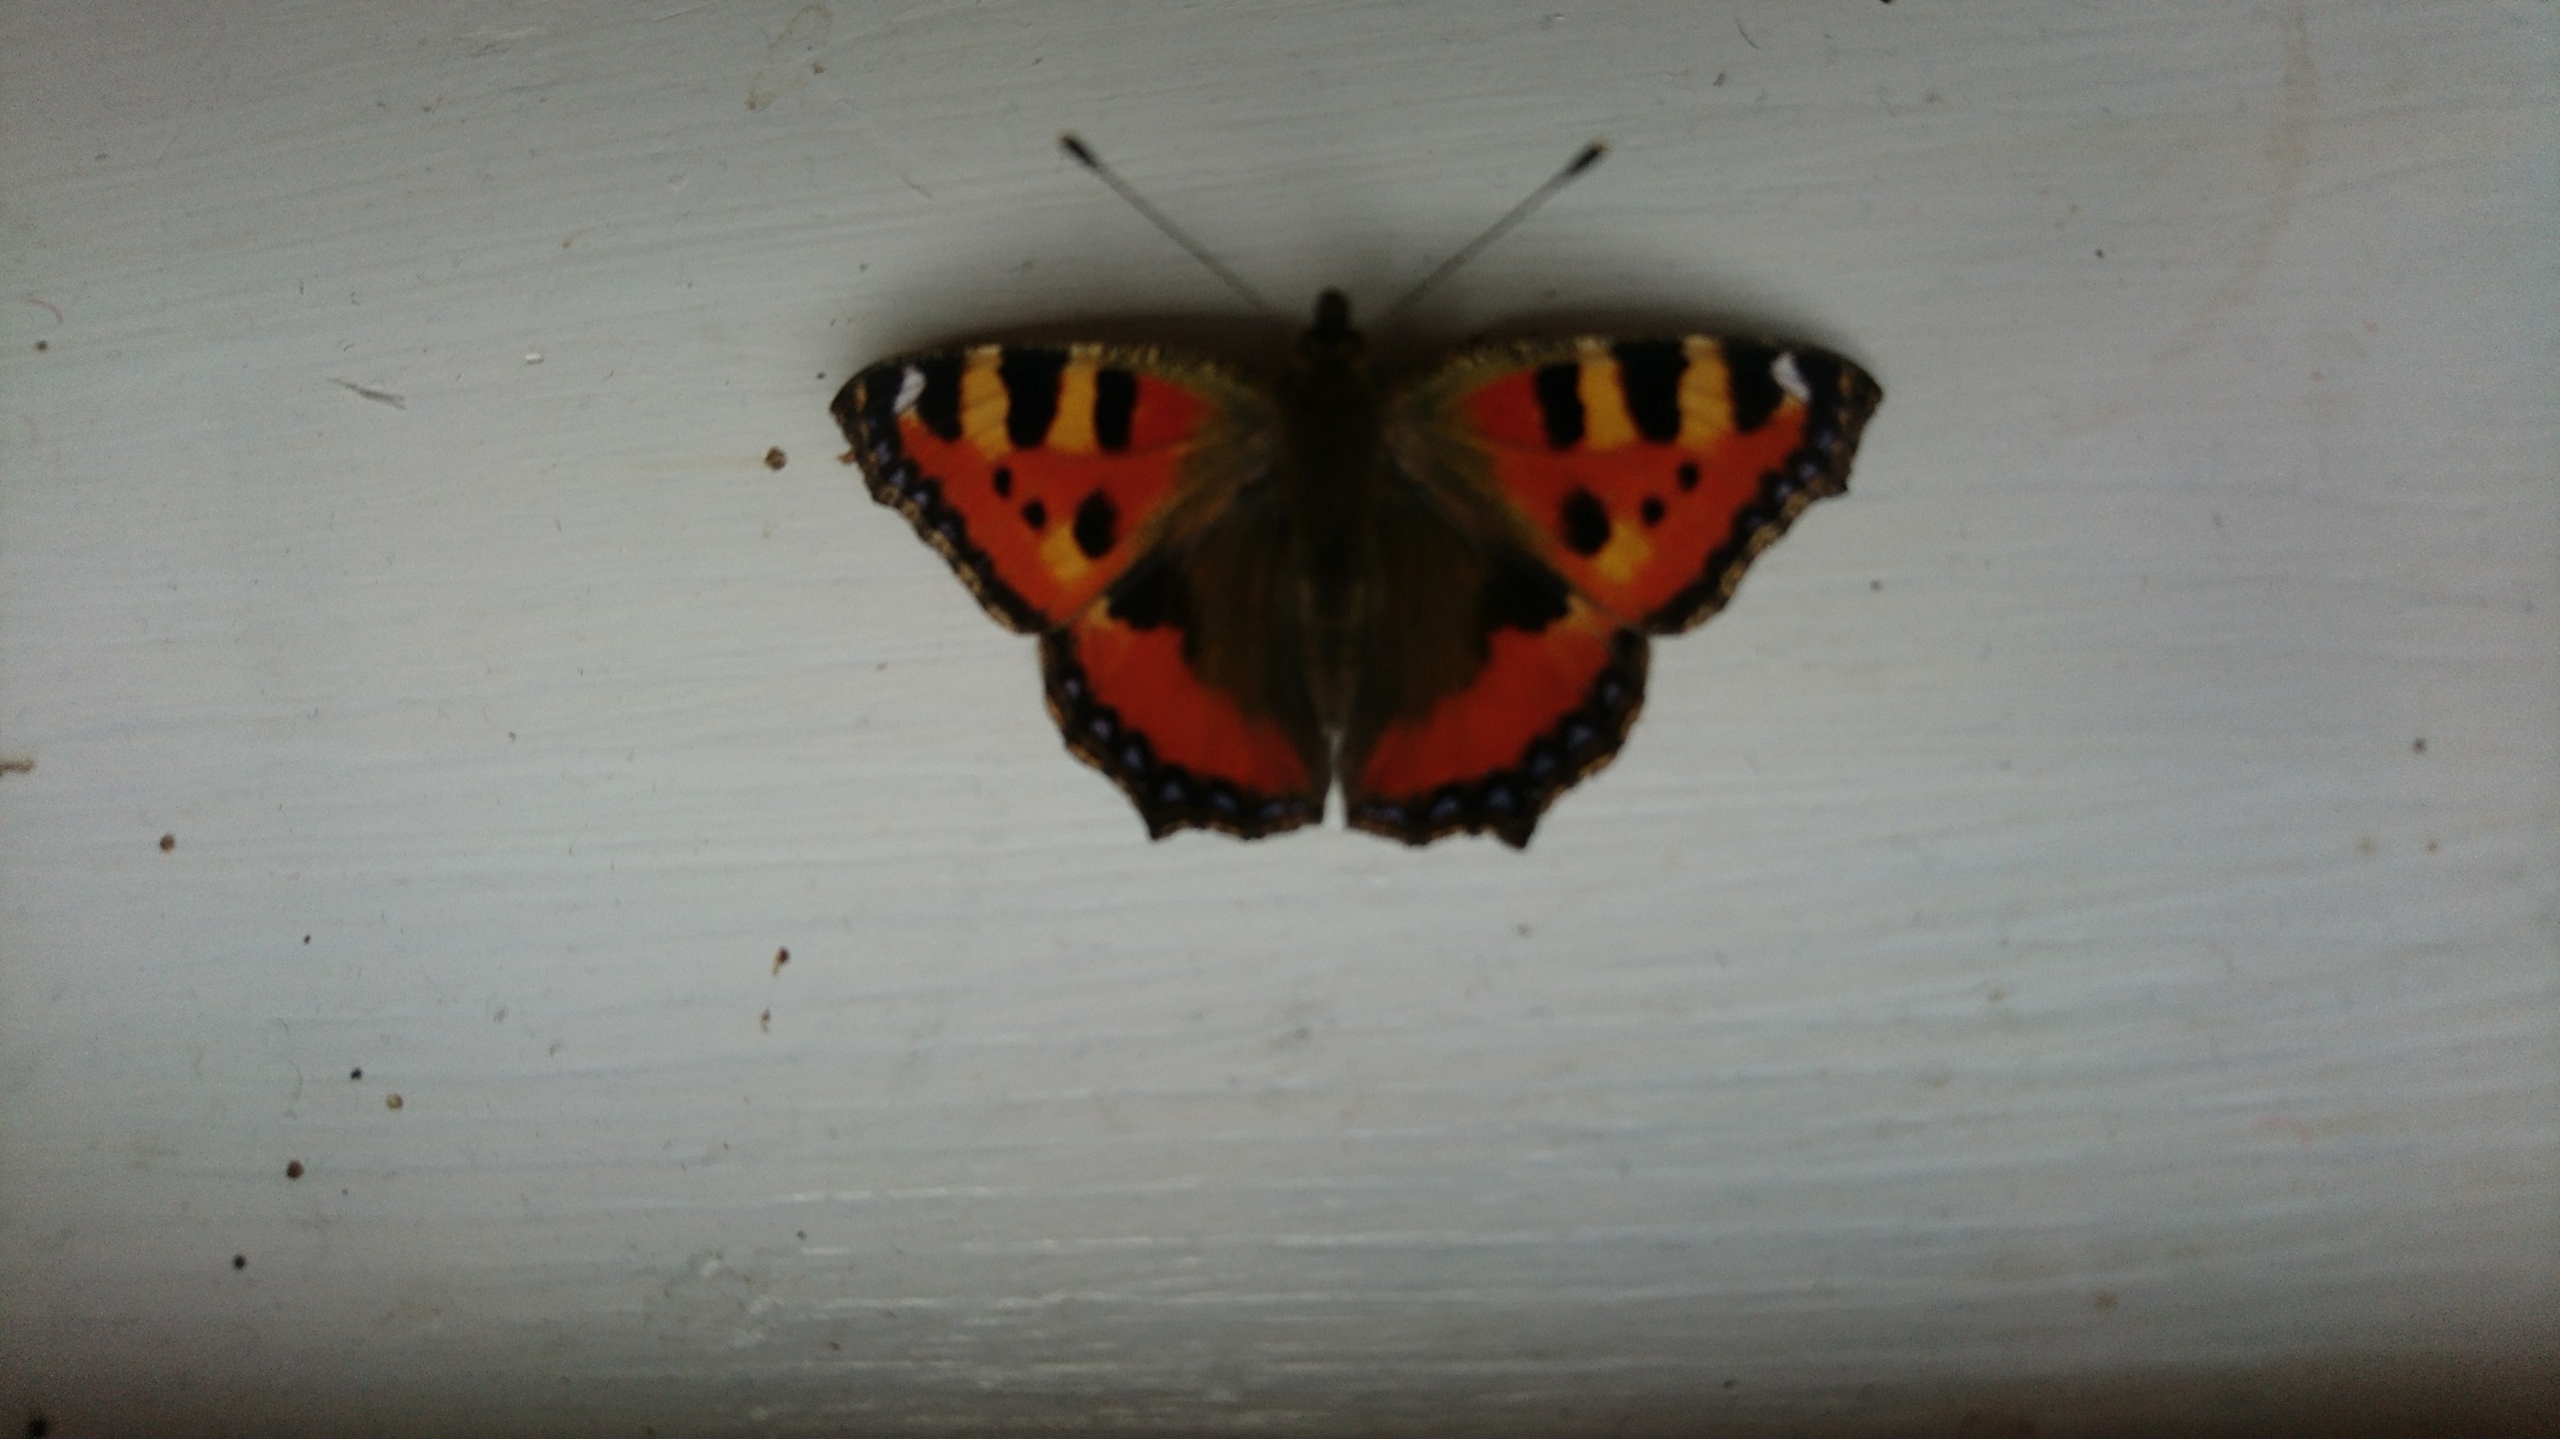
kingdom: Animalia
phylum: Arthropoda
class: Insecta
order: Lepidoptera
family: Nymphalidae
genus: Aglais
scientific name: Aglais urticae
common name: Nældens takvinge
